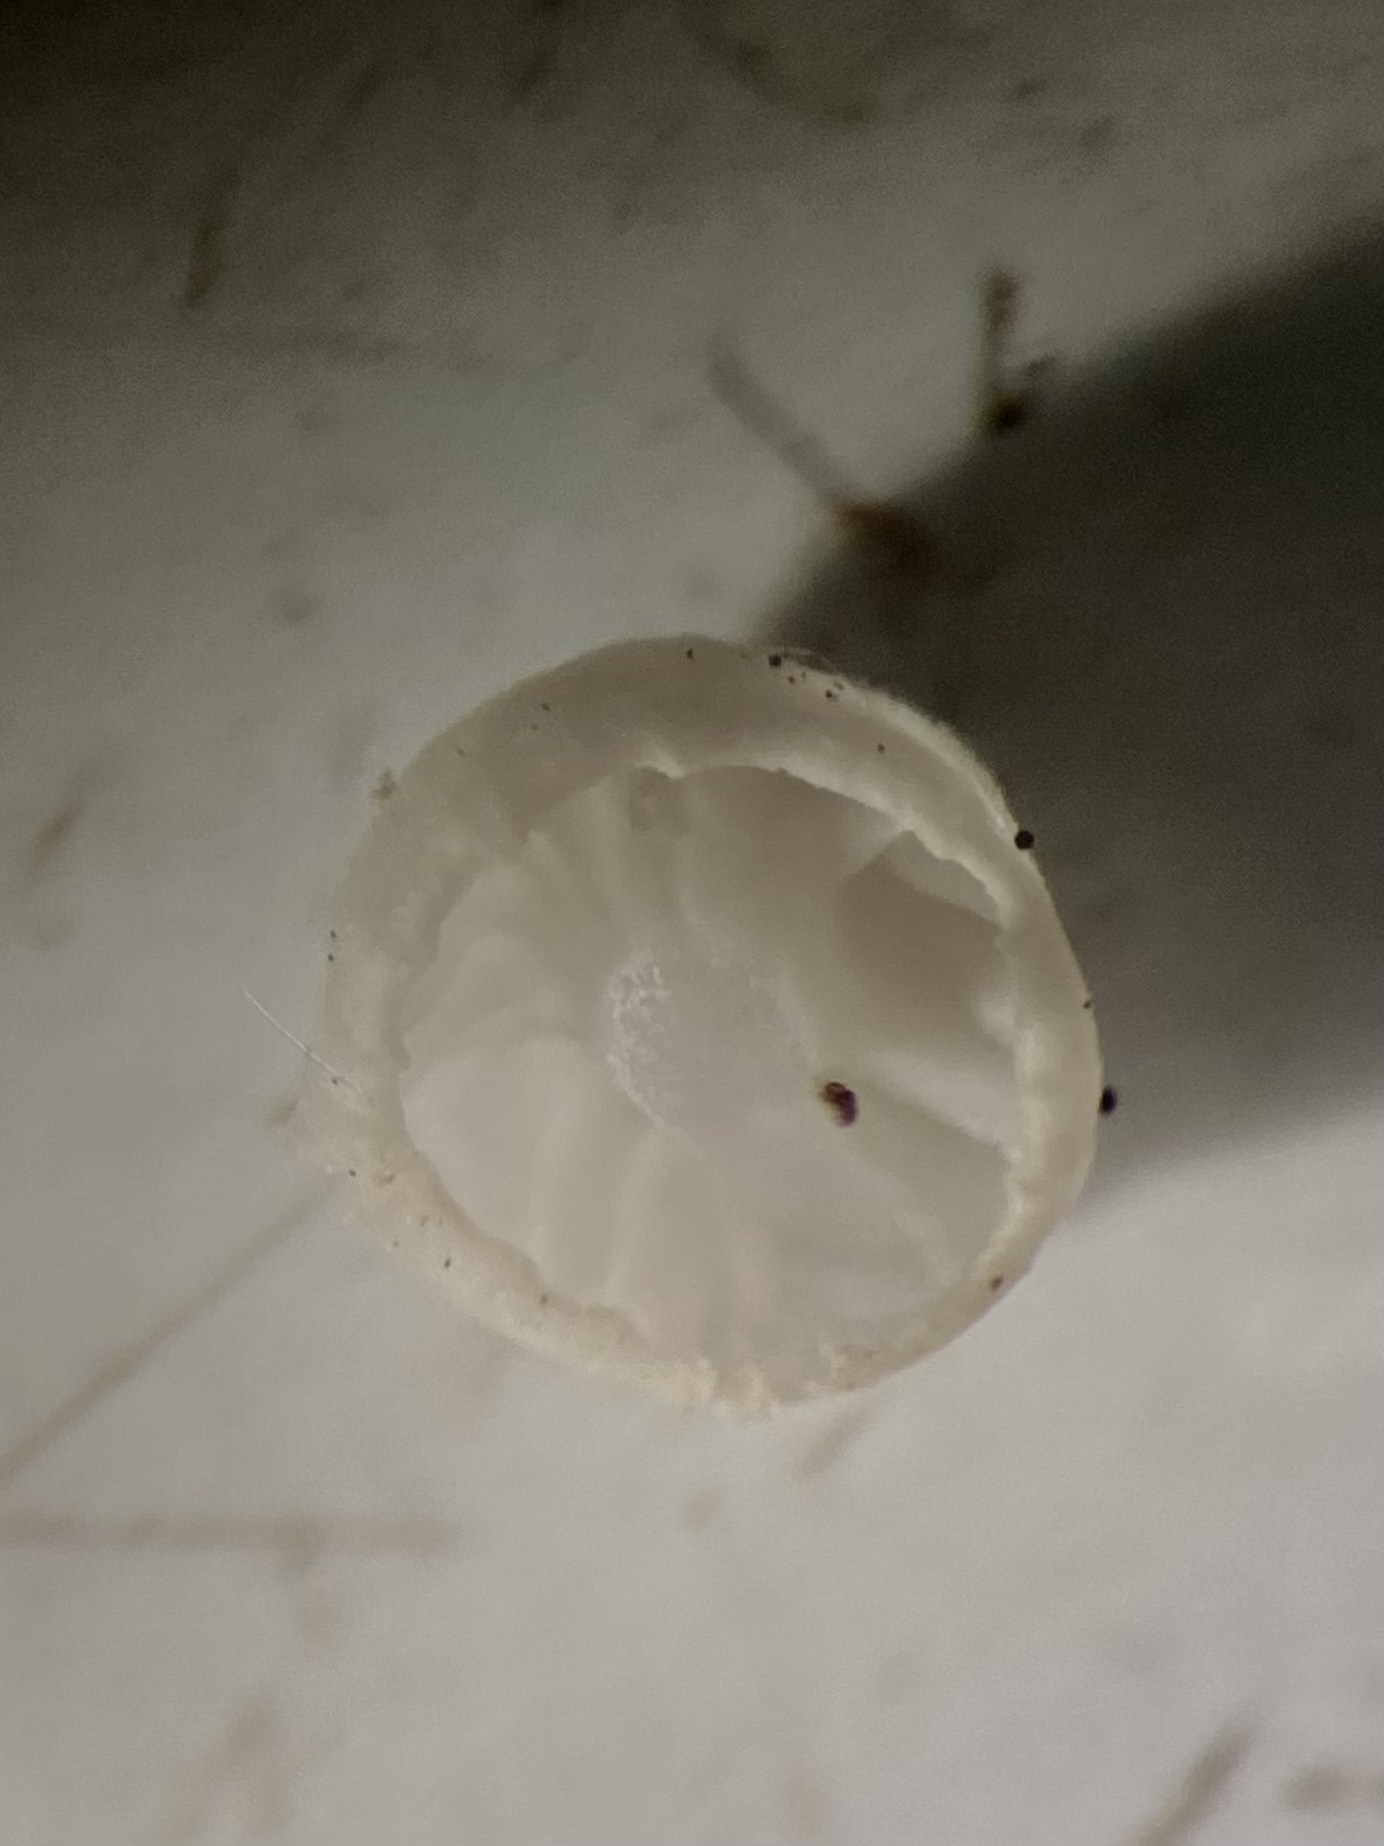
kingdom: Fungi
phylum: Basidiomycota
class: Agaricomycetes
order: Agaricales
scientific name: Agaricales
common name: champignonordenen
